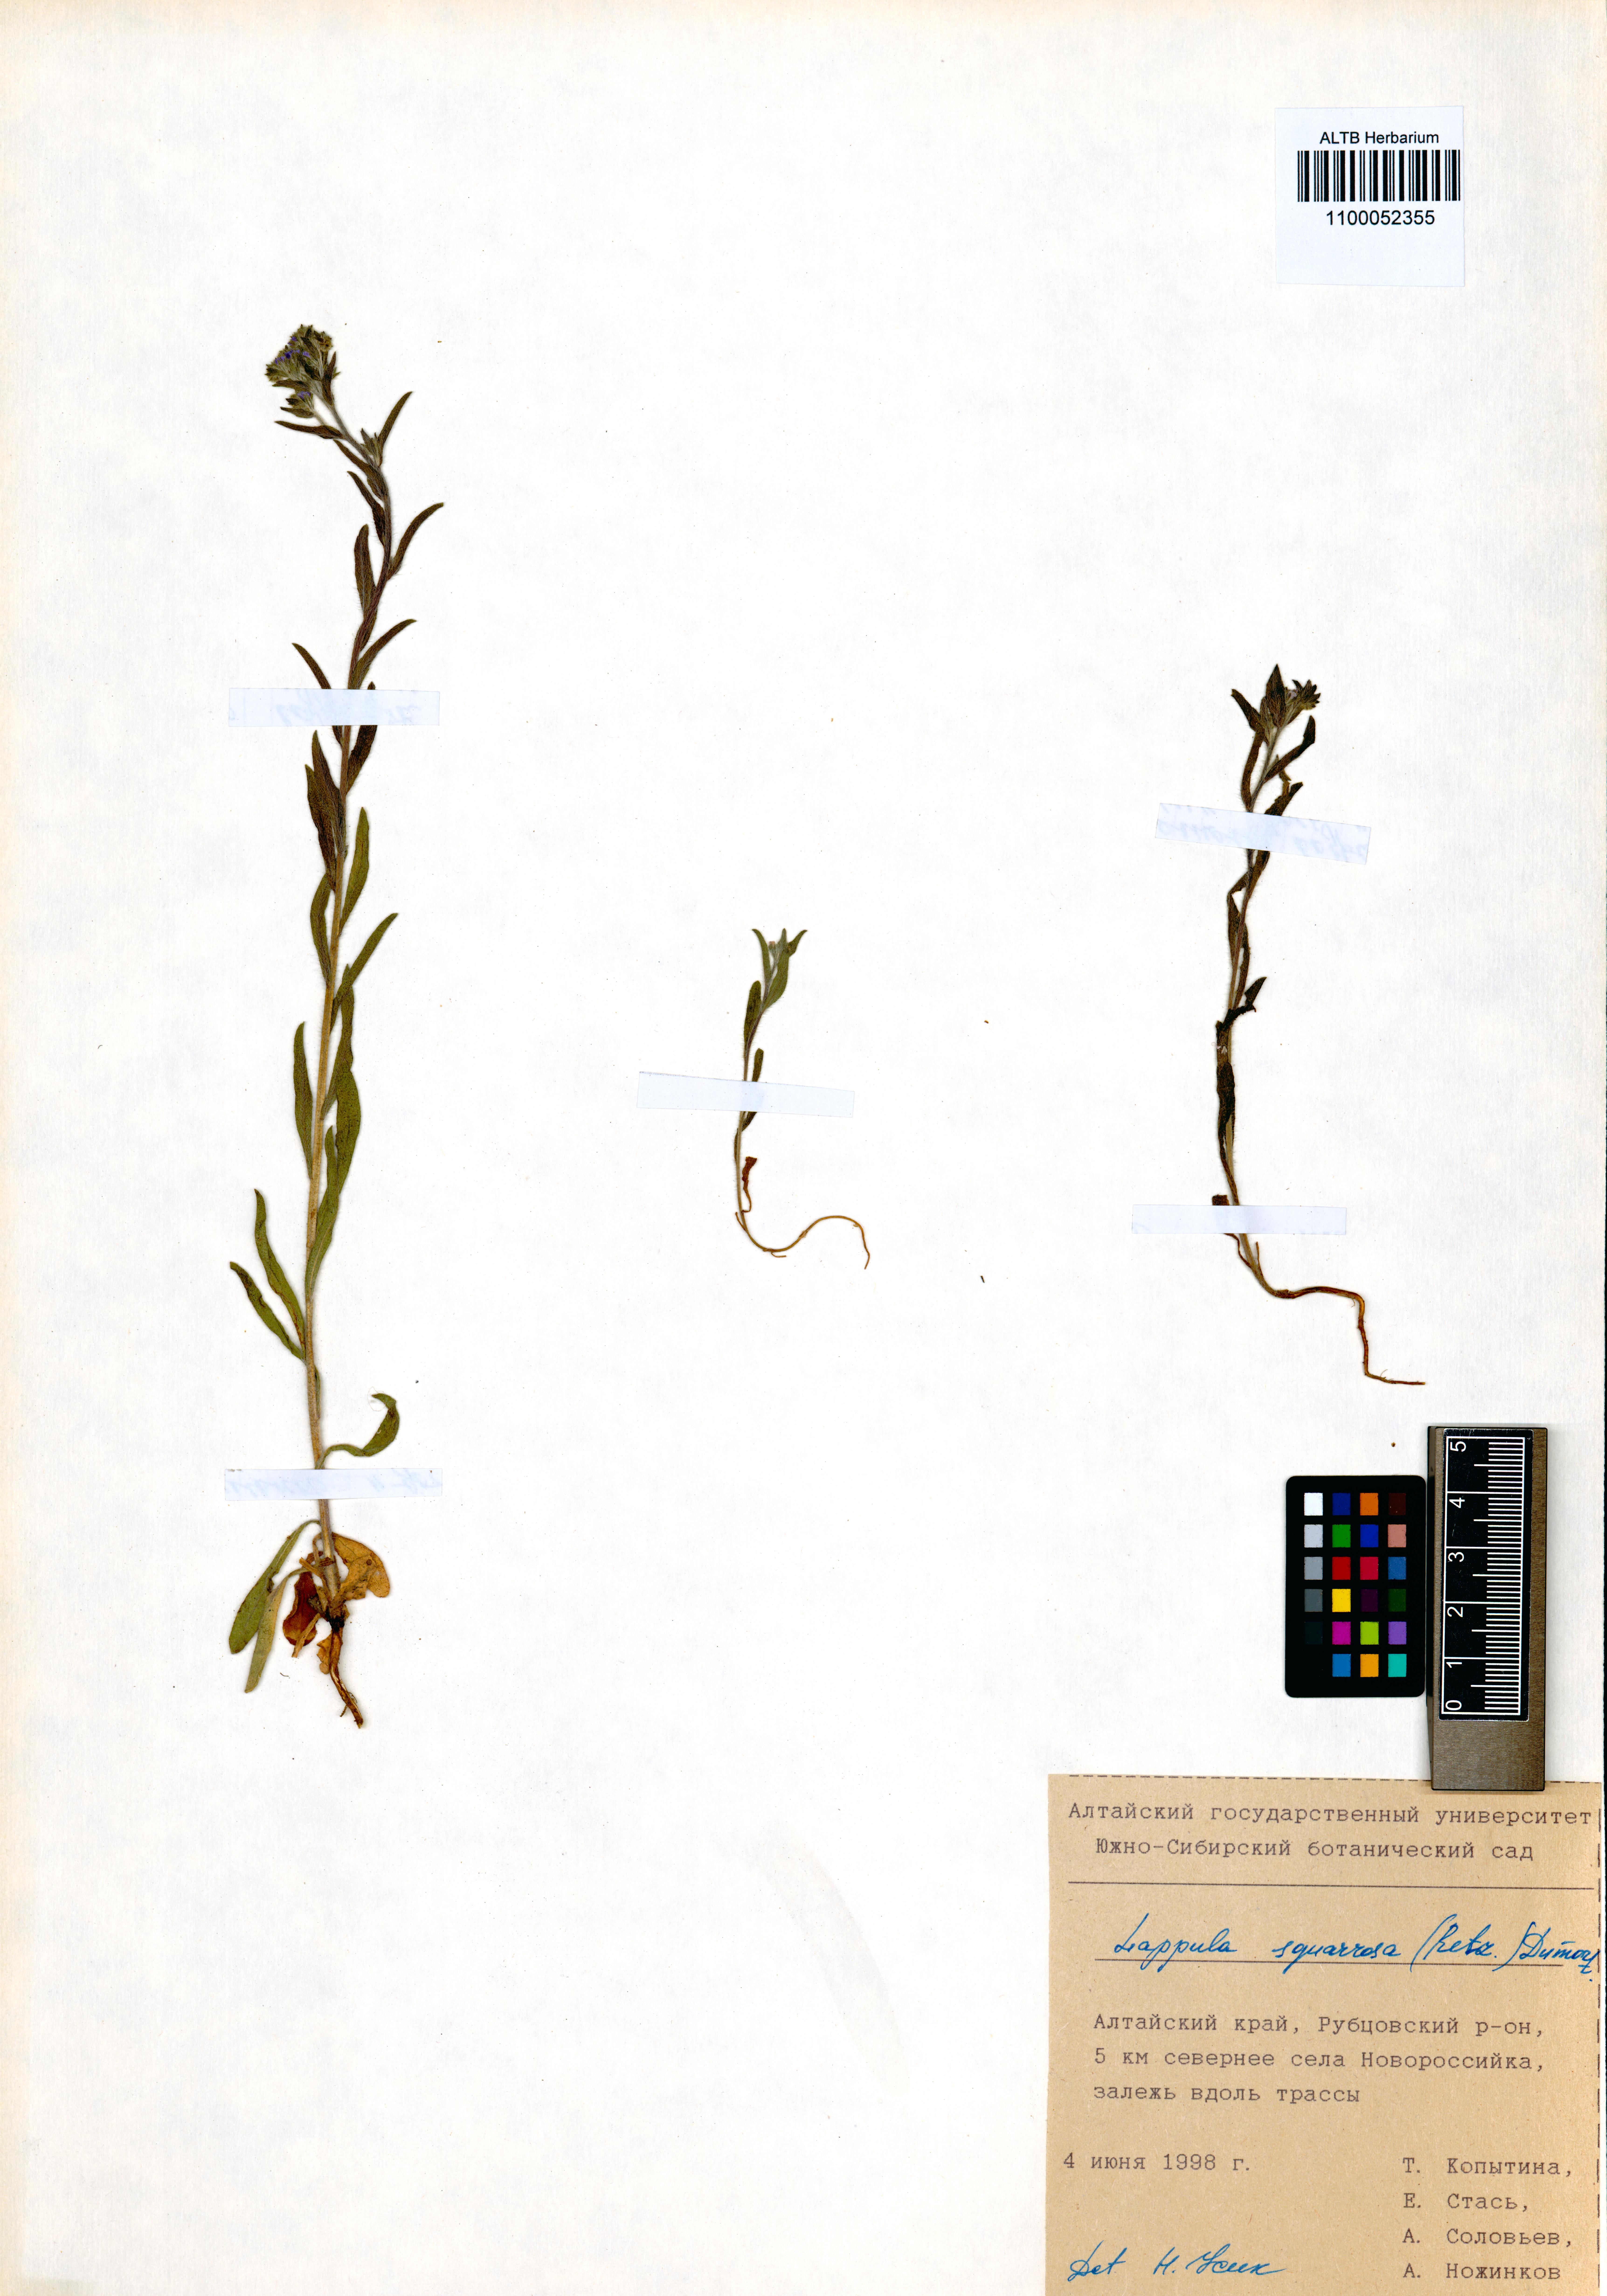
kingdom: Plantae
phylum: Tracheophyta
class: Magnoliopsida
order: Boraginales
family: Boraginaceae
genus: Lappula
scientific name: Lappula squarrosa
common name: European stickseed
